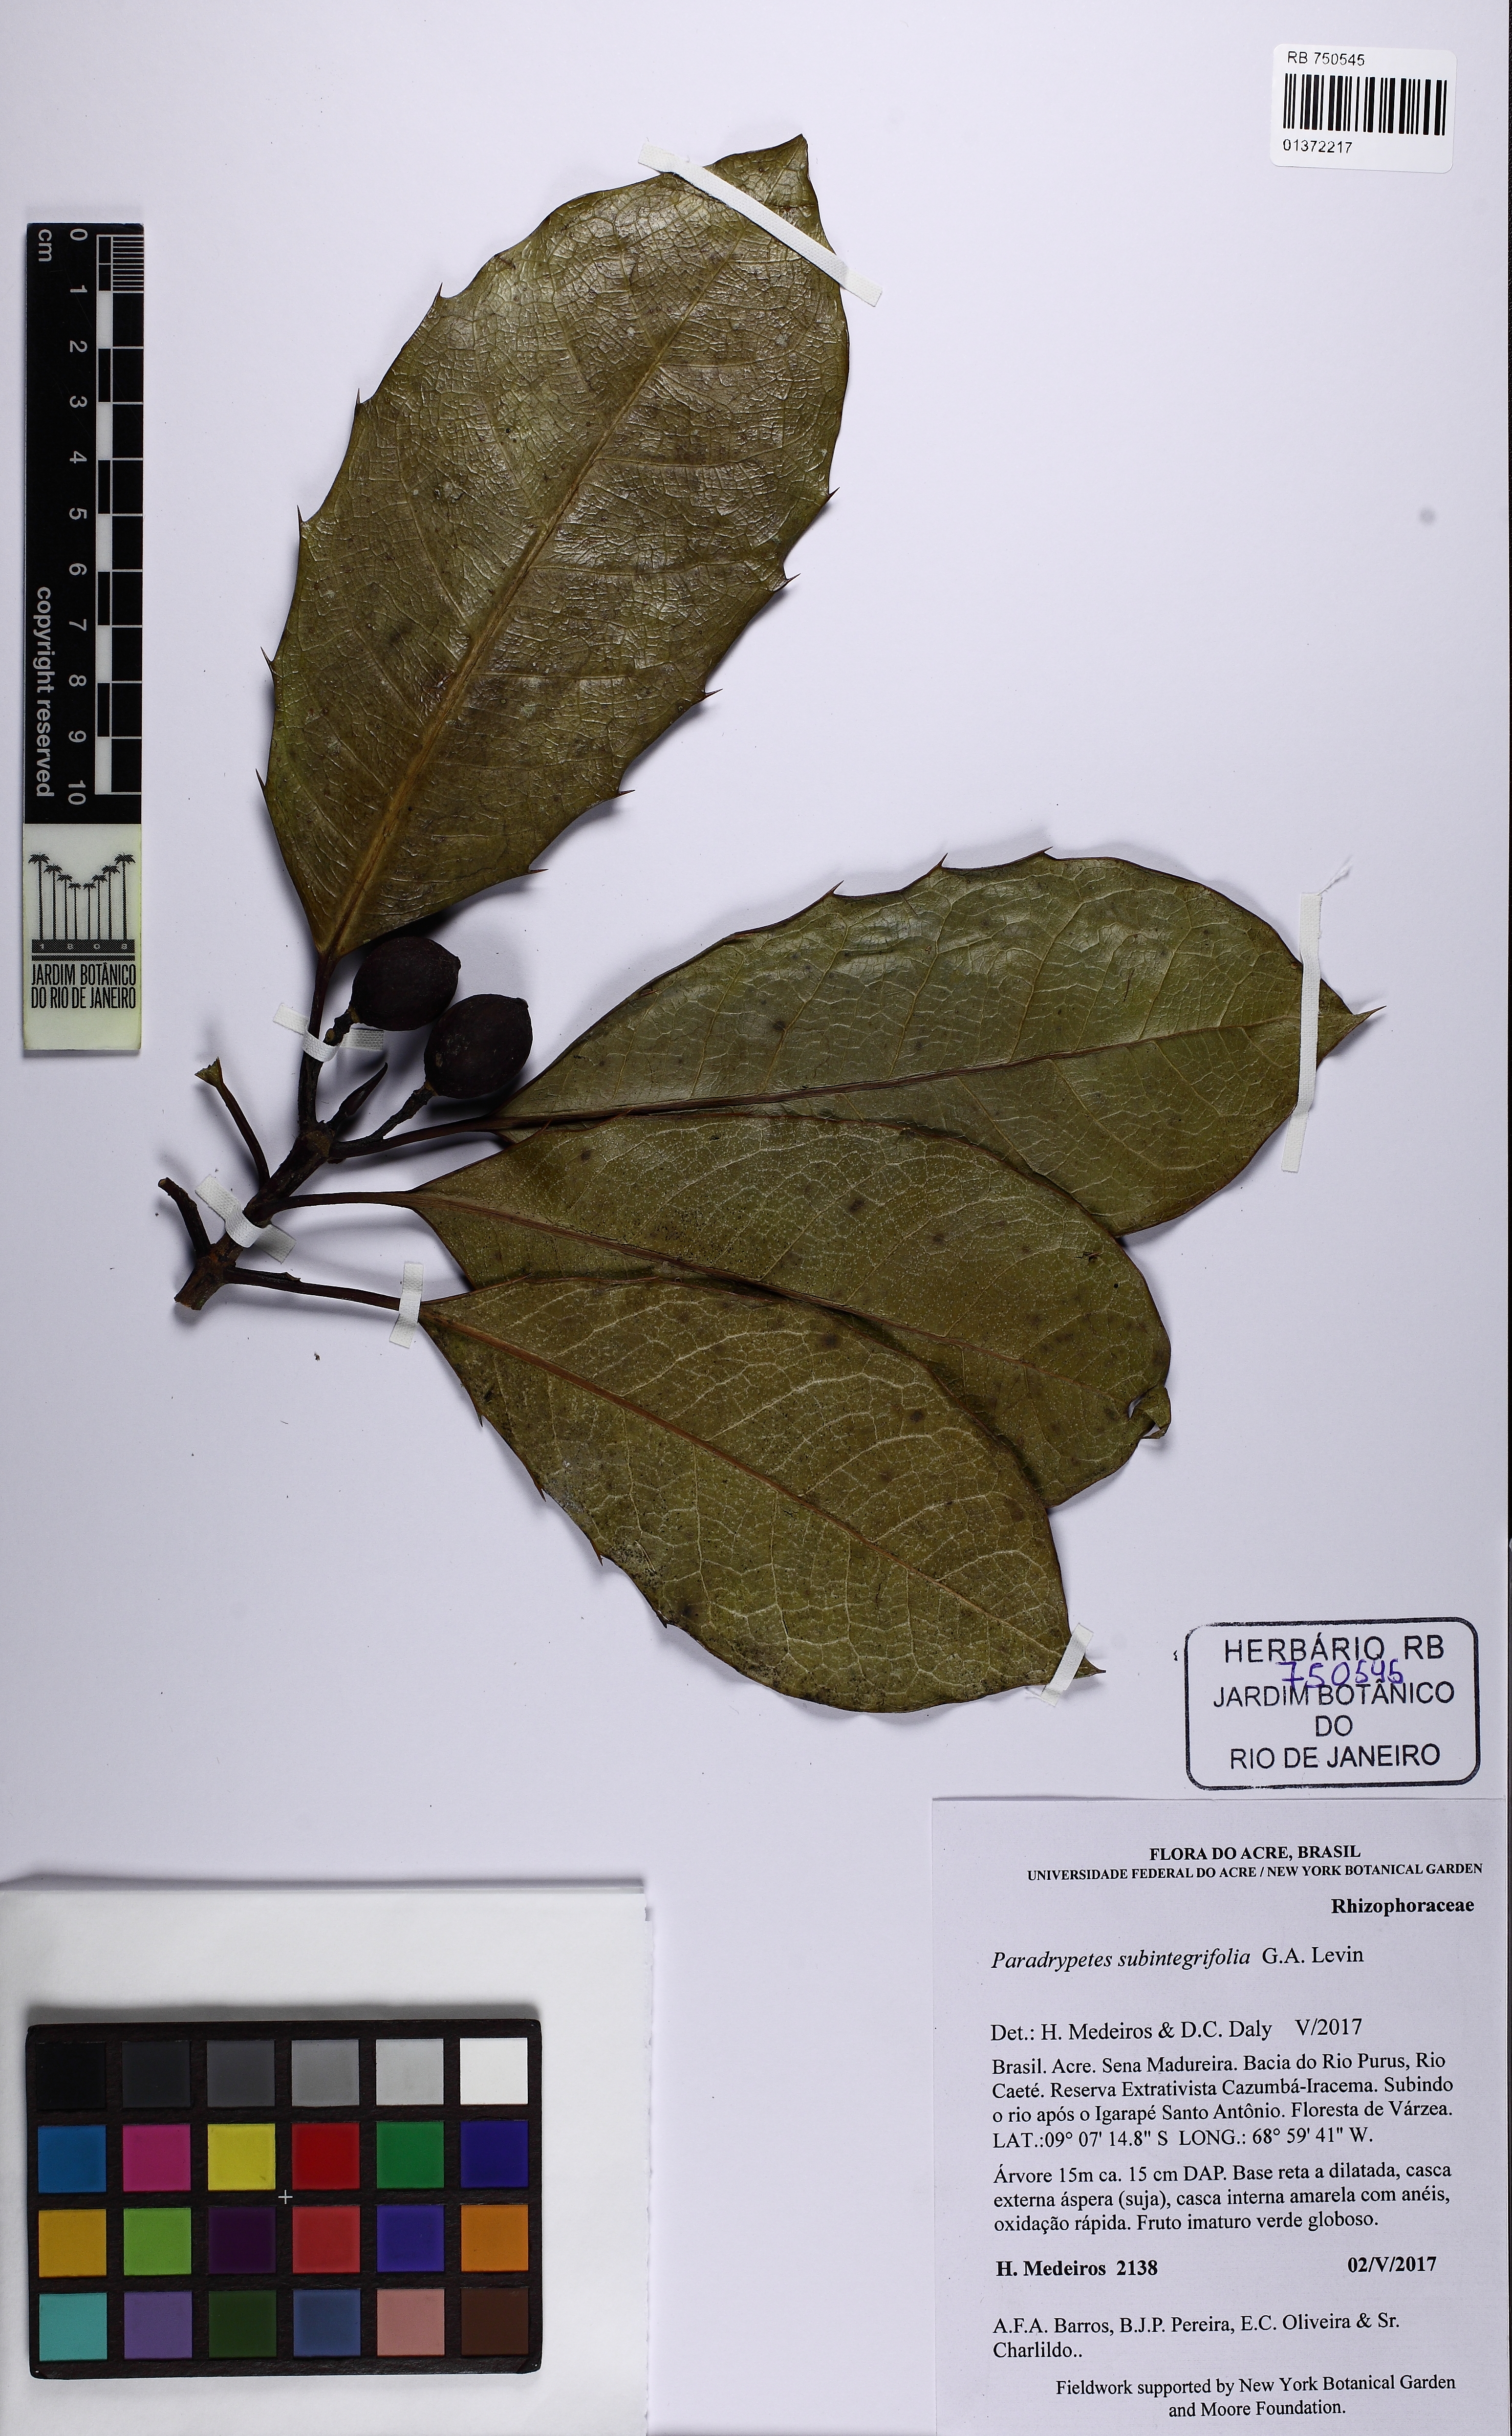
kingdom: Plantae
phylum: Tracheophyta
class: Magnoliopsida
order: Malpighiales
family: Rhizophoraceae
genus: Paradrypetes
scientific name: Paradrypetes subintegrifolia
